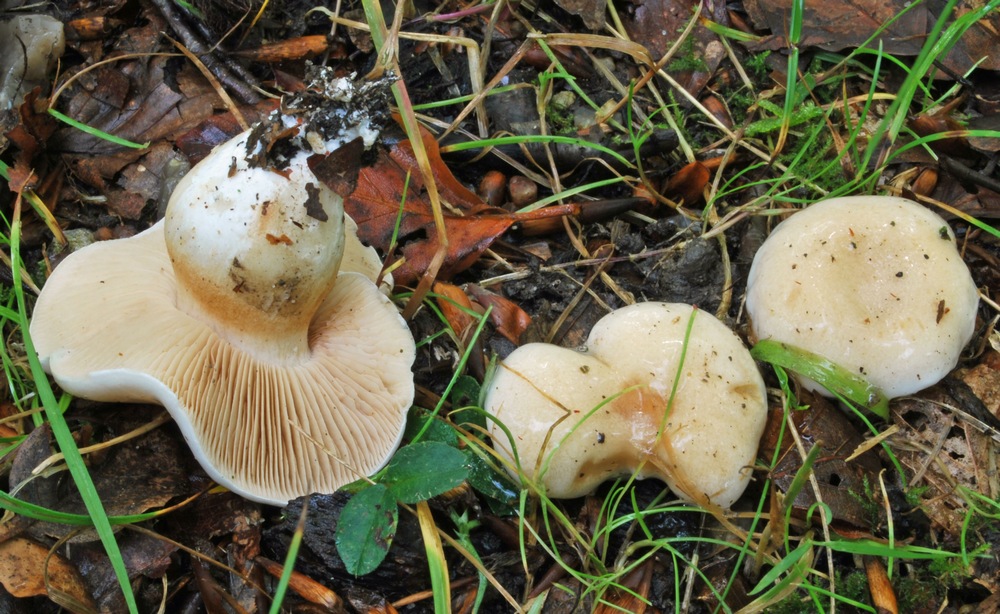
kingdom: Fungi
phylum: Basidiomycota
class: Agaricomycetes
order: Agaricales
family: Cortinariaceae
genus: Thaxterogaster
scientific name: Thaxterogaster barbatus
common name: elfenbens-slørhat
